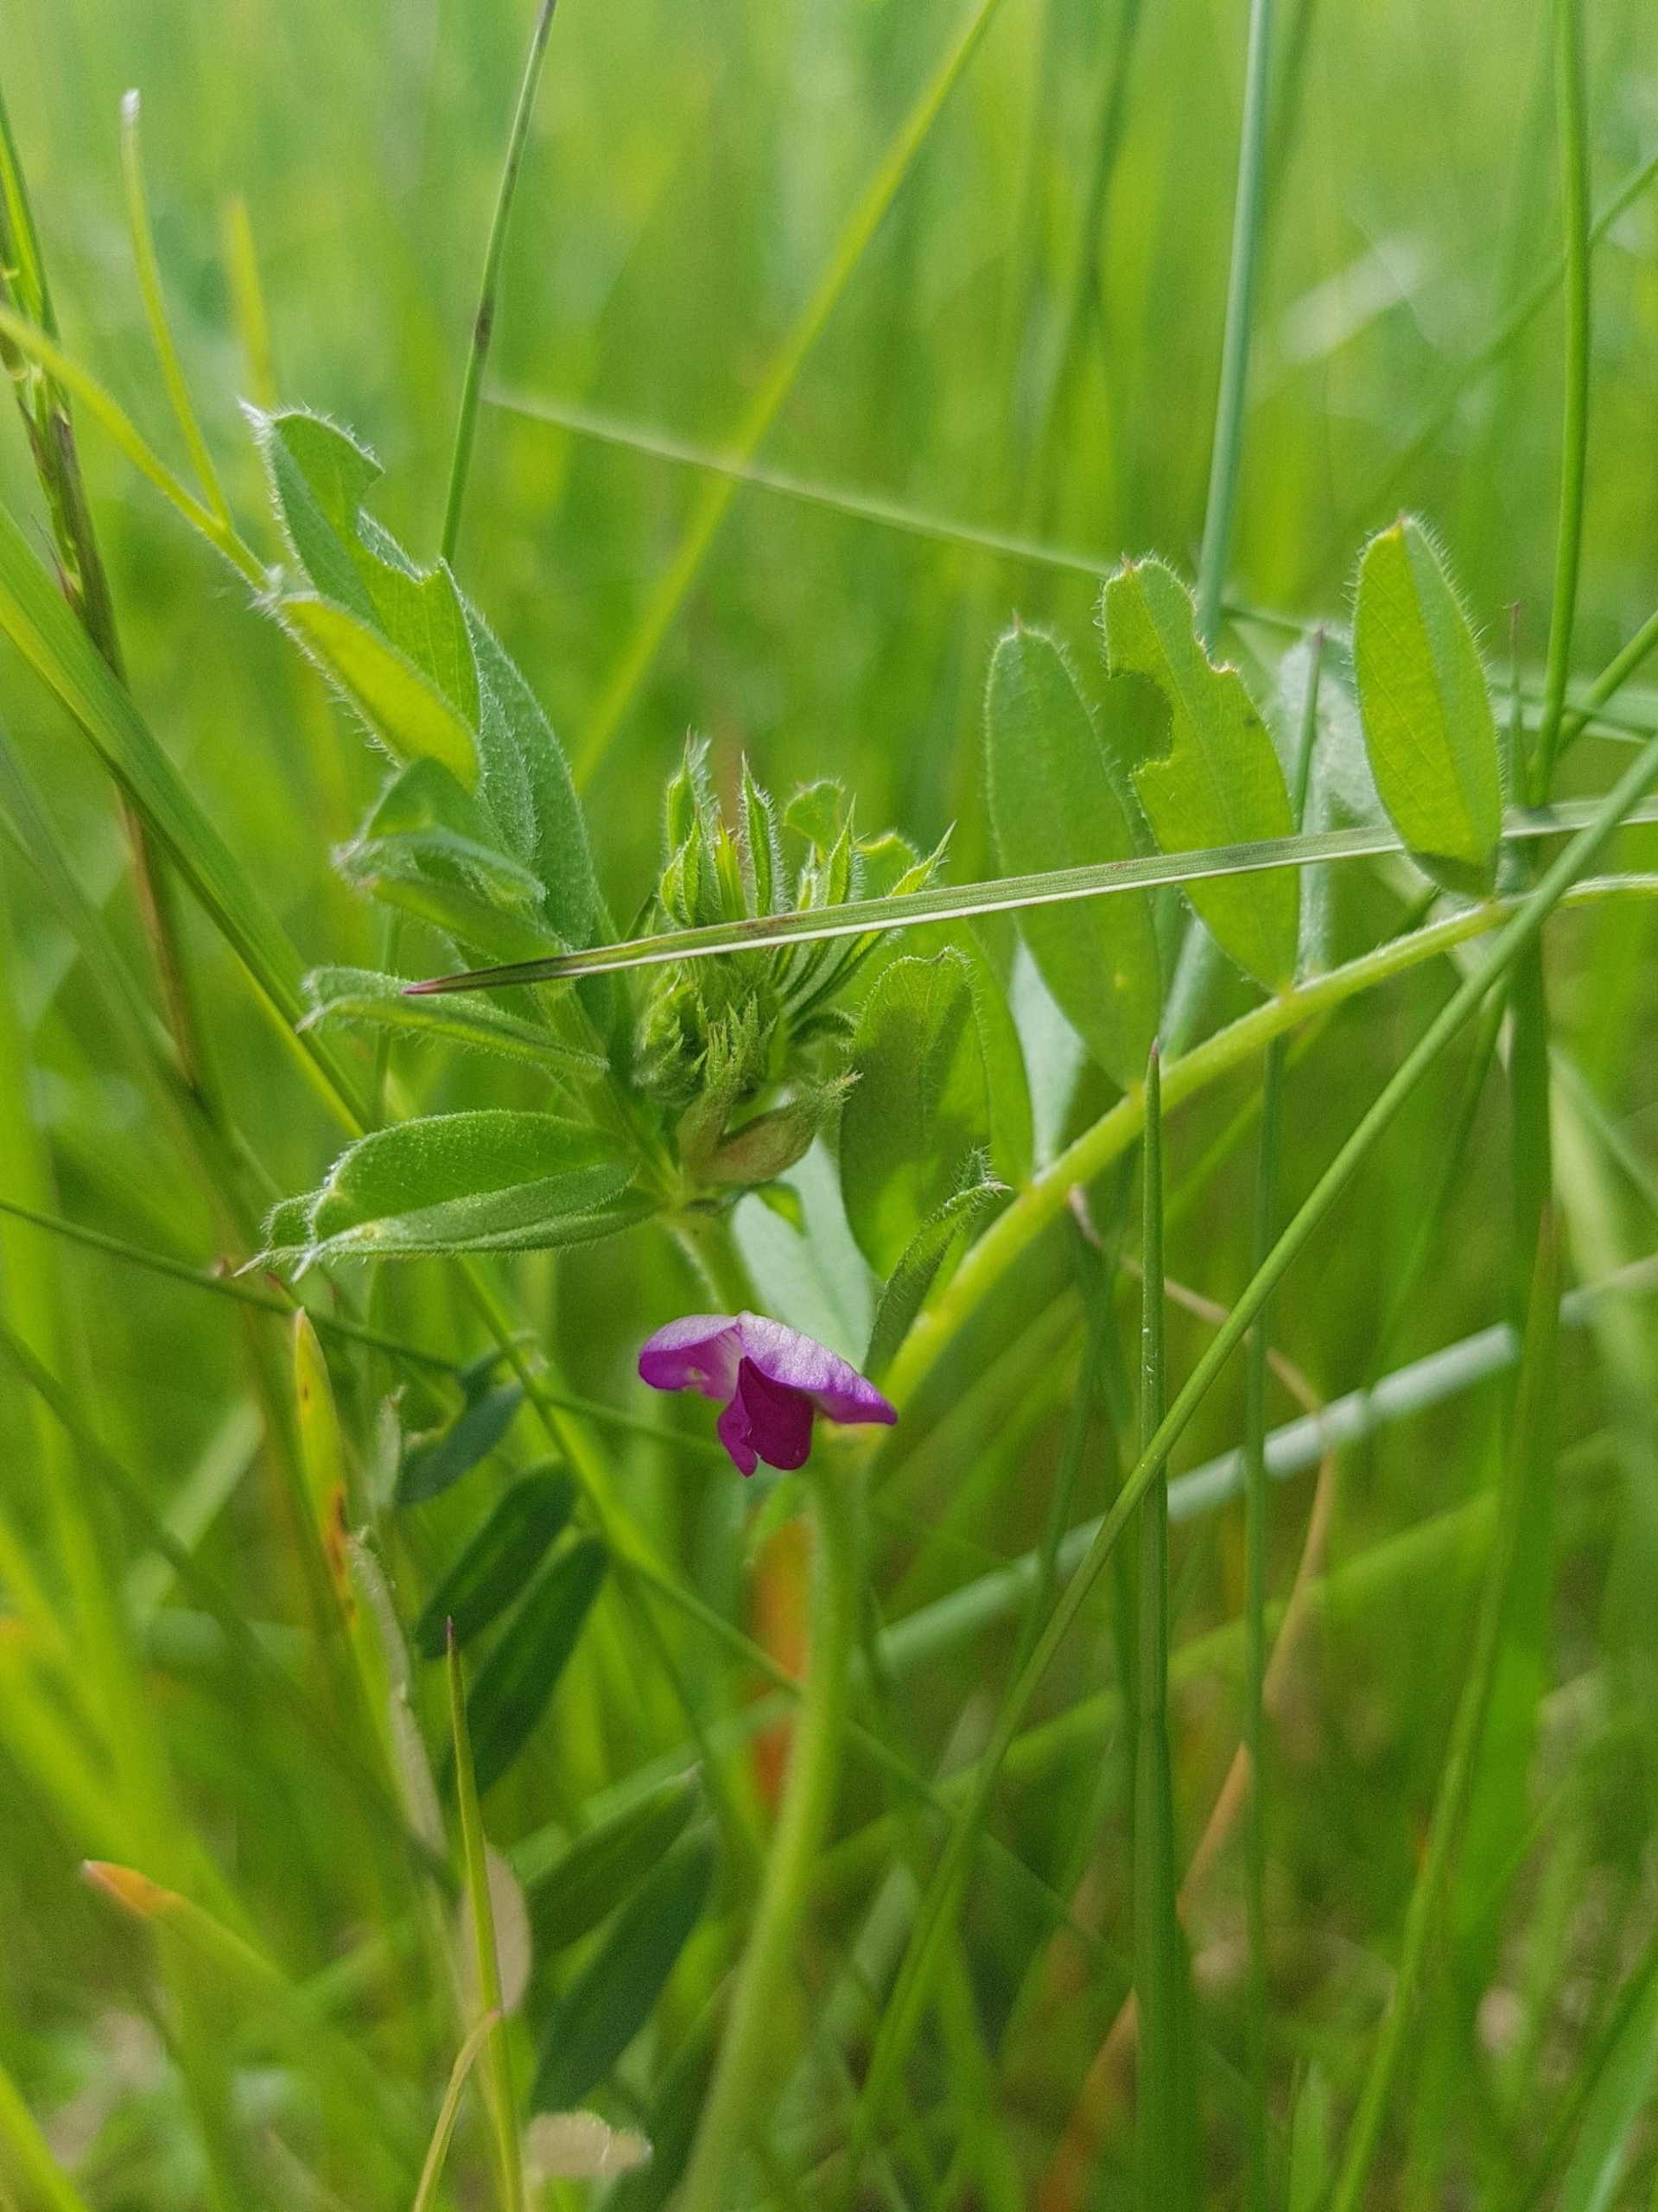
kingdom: Plantae
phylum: Tracheophyta
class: Magnoliopsida
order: Fabales
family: Fabaceae
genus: Vicia
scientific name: Vicia sativa
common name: Foder-vikke
